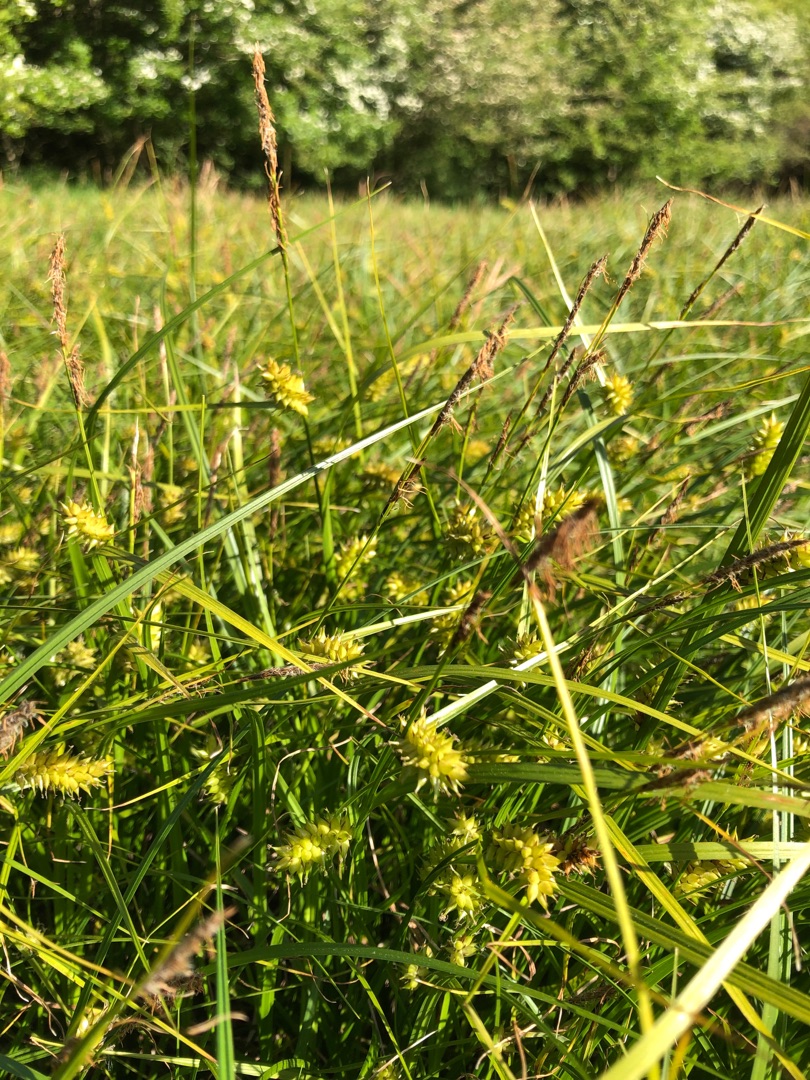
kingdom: Plantae
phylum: Tracheophyta
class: Liliopsida
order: Poales
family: Cyperaceae
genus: Carex
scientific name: Carex vesicaria
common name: Blære-star
